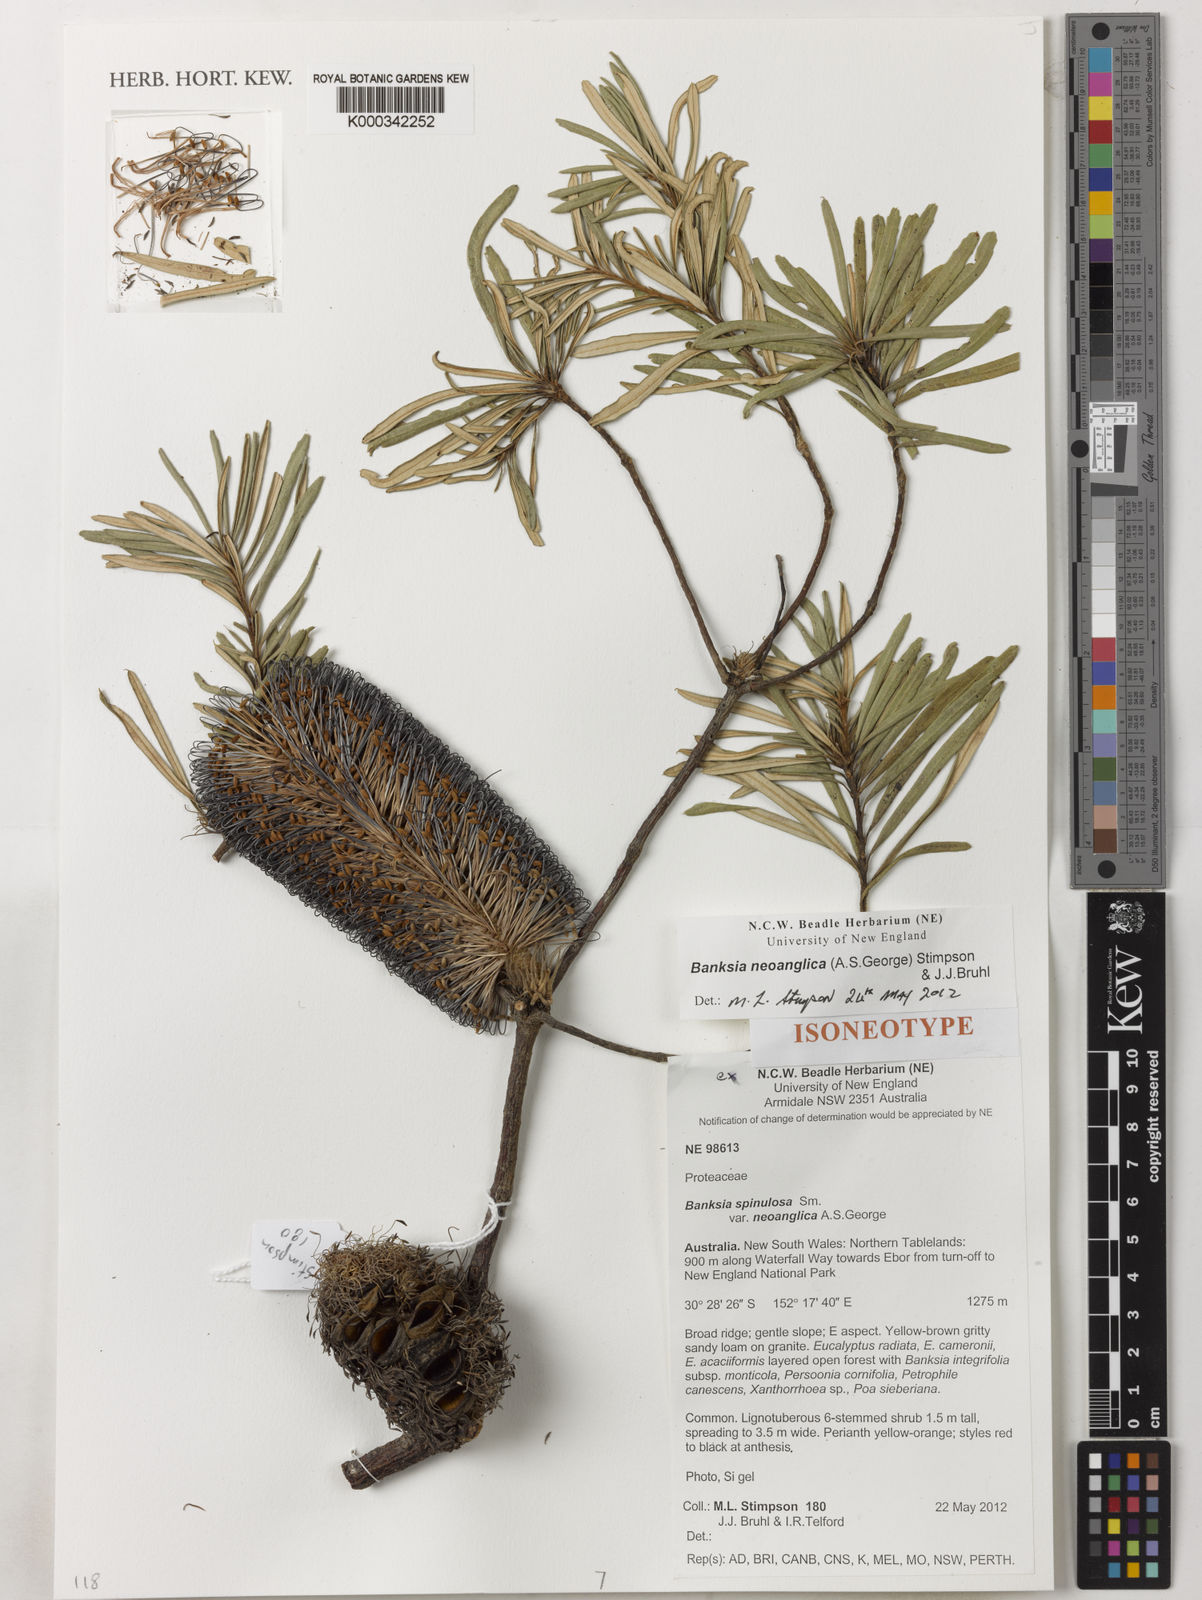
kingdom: Plantae
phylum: Tracheophyta
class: Magnoliopsida
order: Proteales
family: Proteaceae
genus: Banksia
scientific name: Banksia neoanglica
